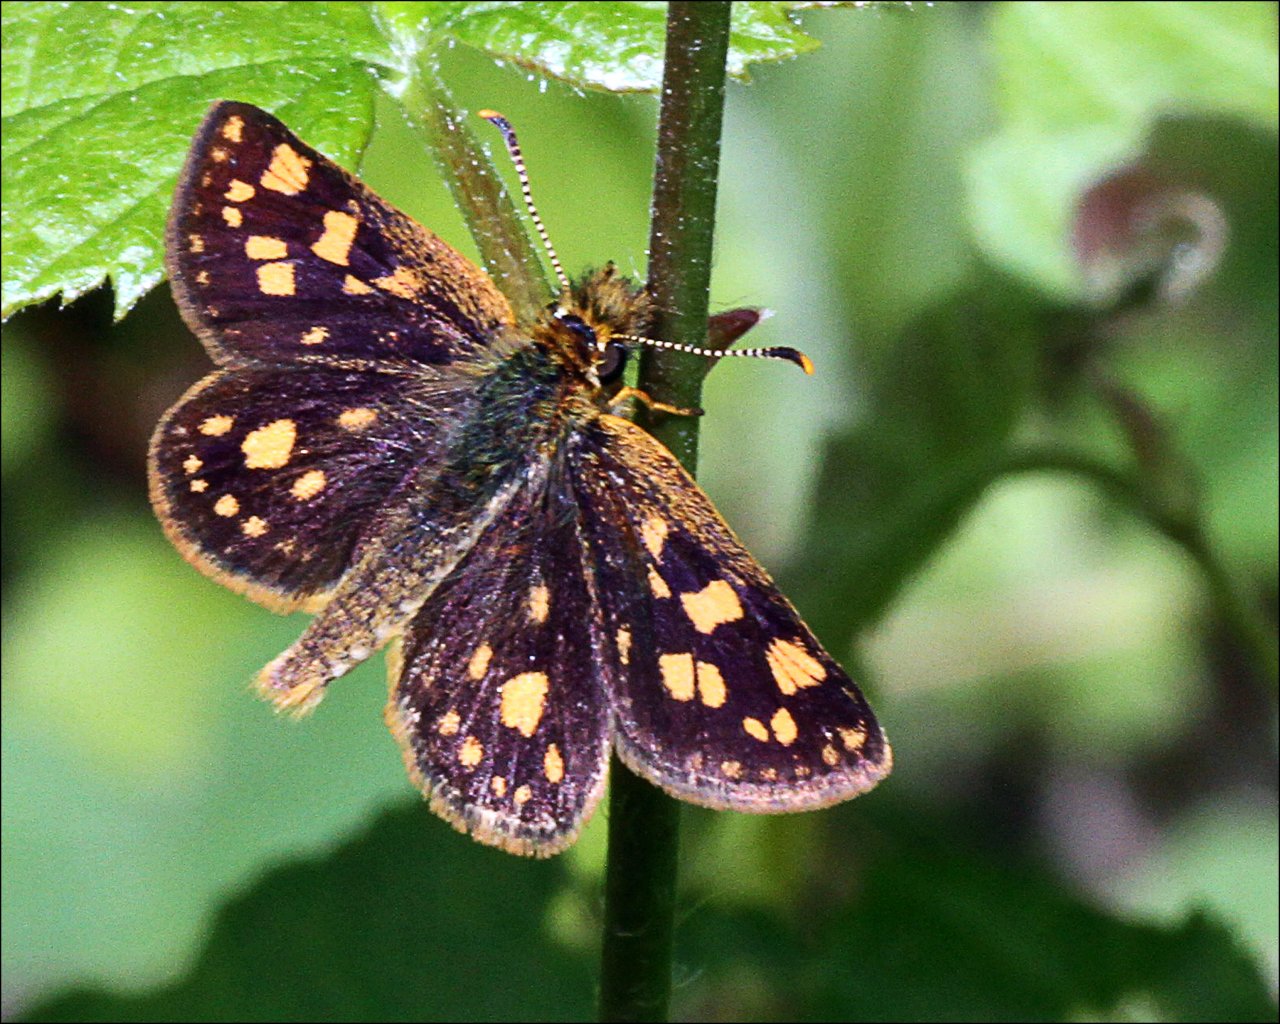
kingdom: Animalia
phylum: Arthropoda
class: Insecta
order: Lepidoptera
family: Hesperiidae
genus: Carterocephalus
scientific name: Carterocephalus palaemon
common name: Chequered Skipper
